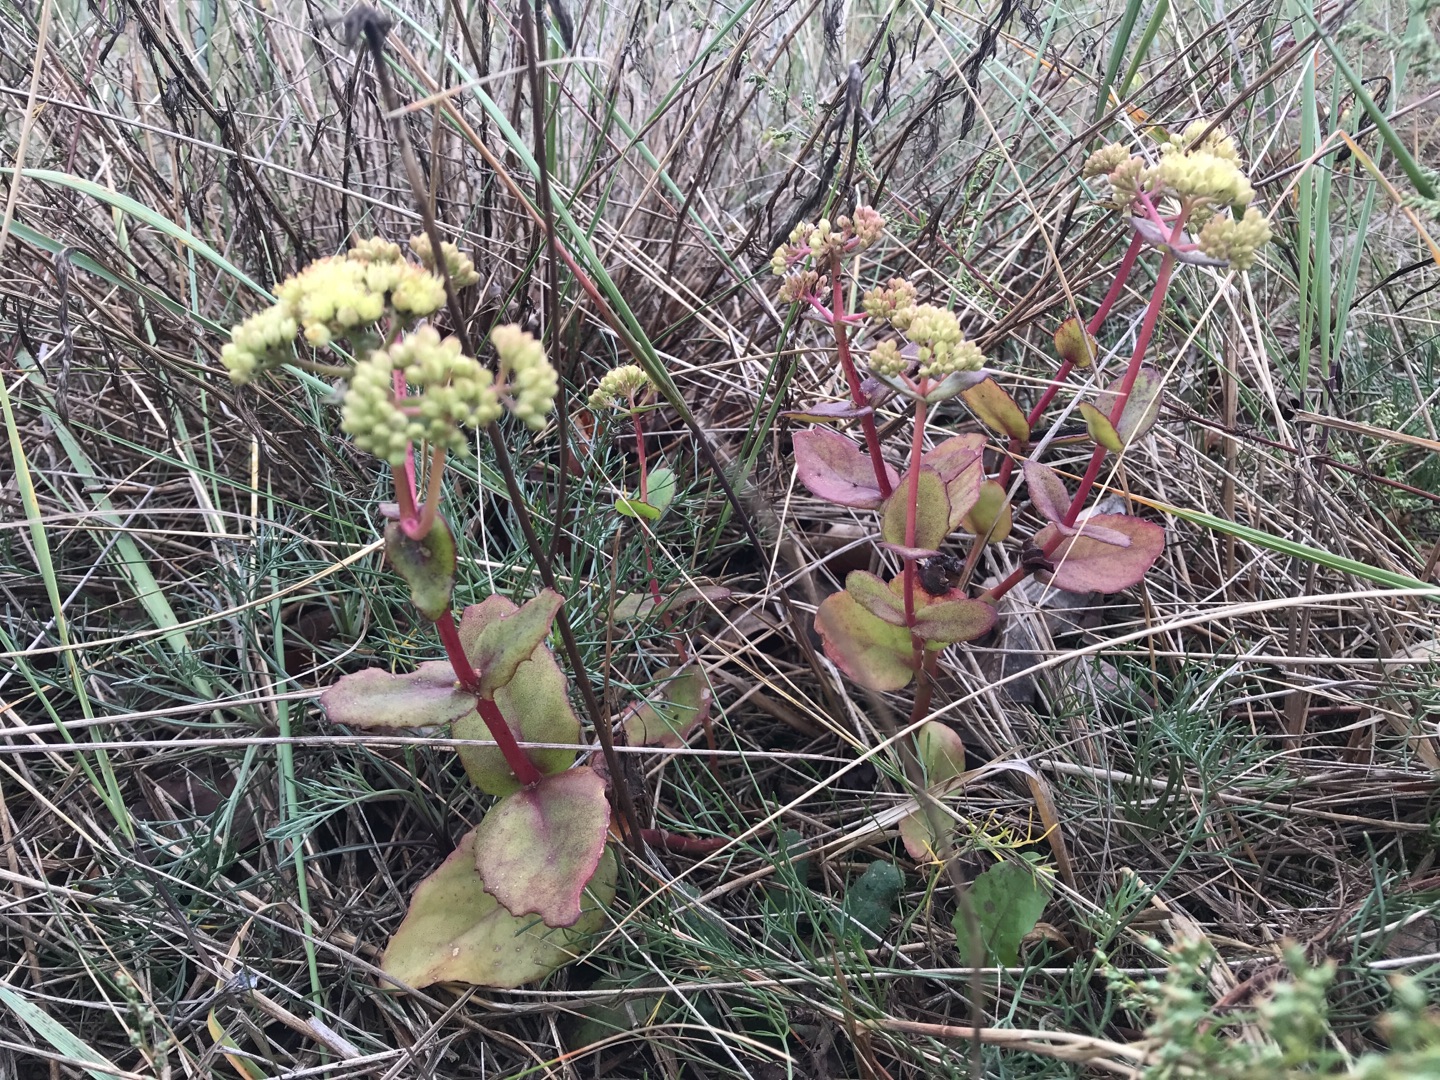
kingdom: Plantae
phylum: Tracheophyta
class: Magnoliopsida
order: Saxifragales
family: Crassulaceae
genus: Hylotelephium
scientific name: Hylotelephium telephium
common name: Sankthansurt
